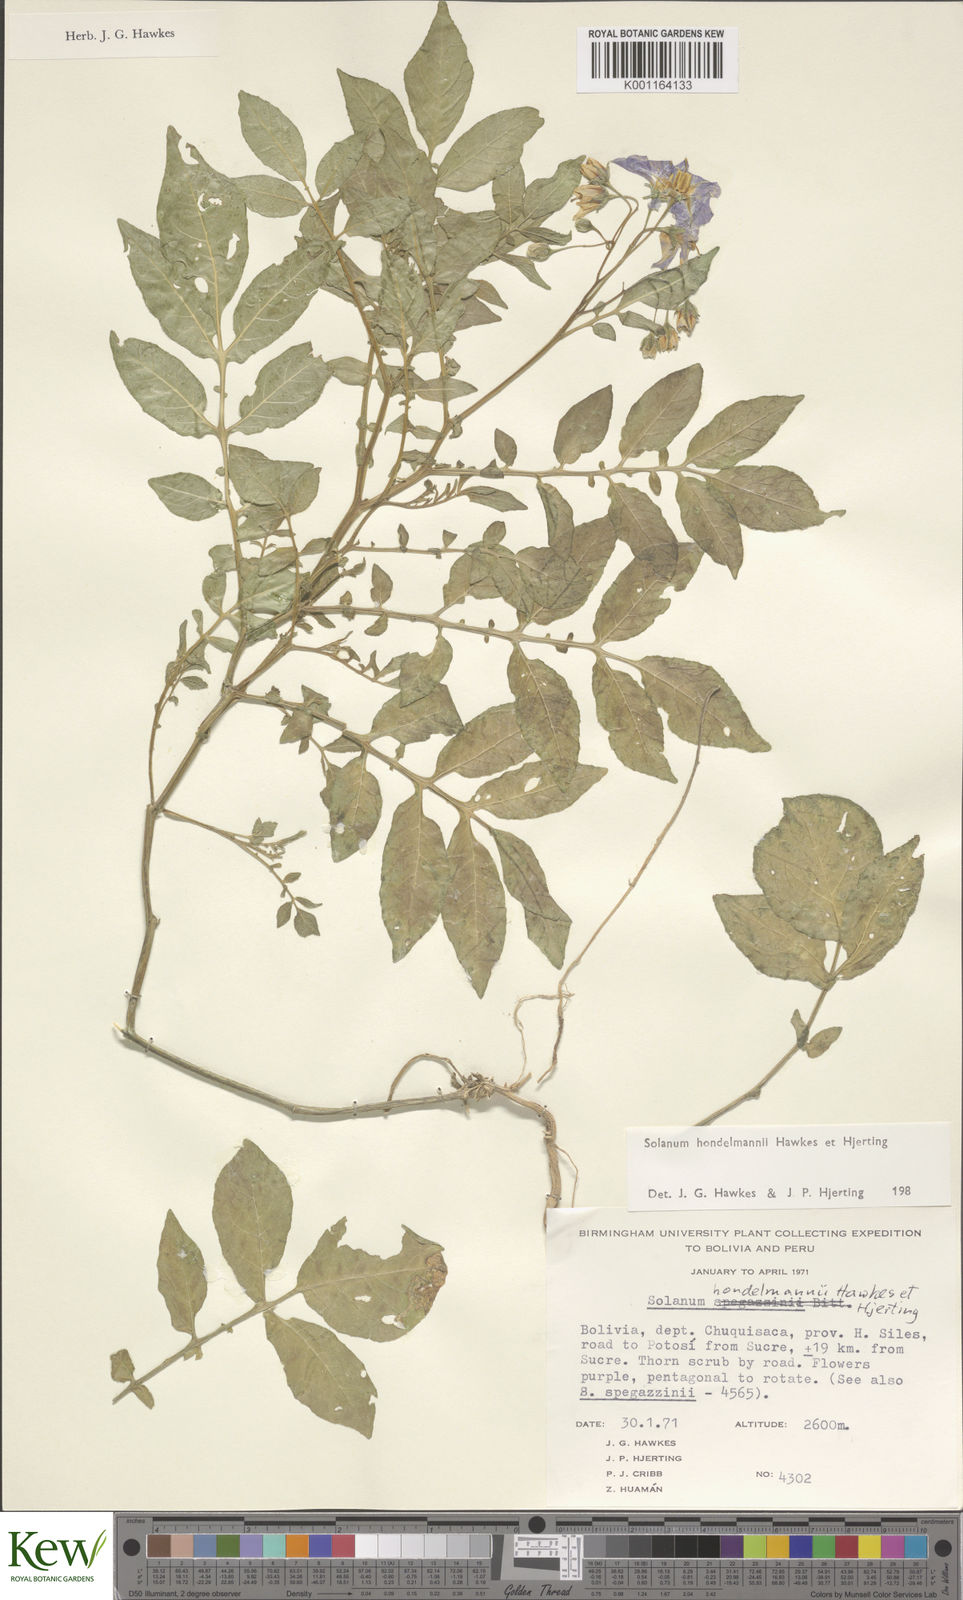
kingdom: Plantae
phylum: Tracheophyta
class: Magnoliopsida
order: Solanales
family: Solanaceae
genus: Solanum
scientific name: Solanum brevicaule
